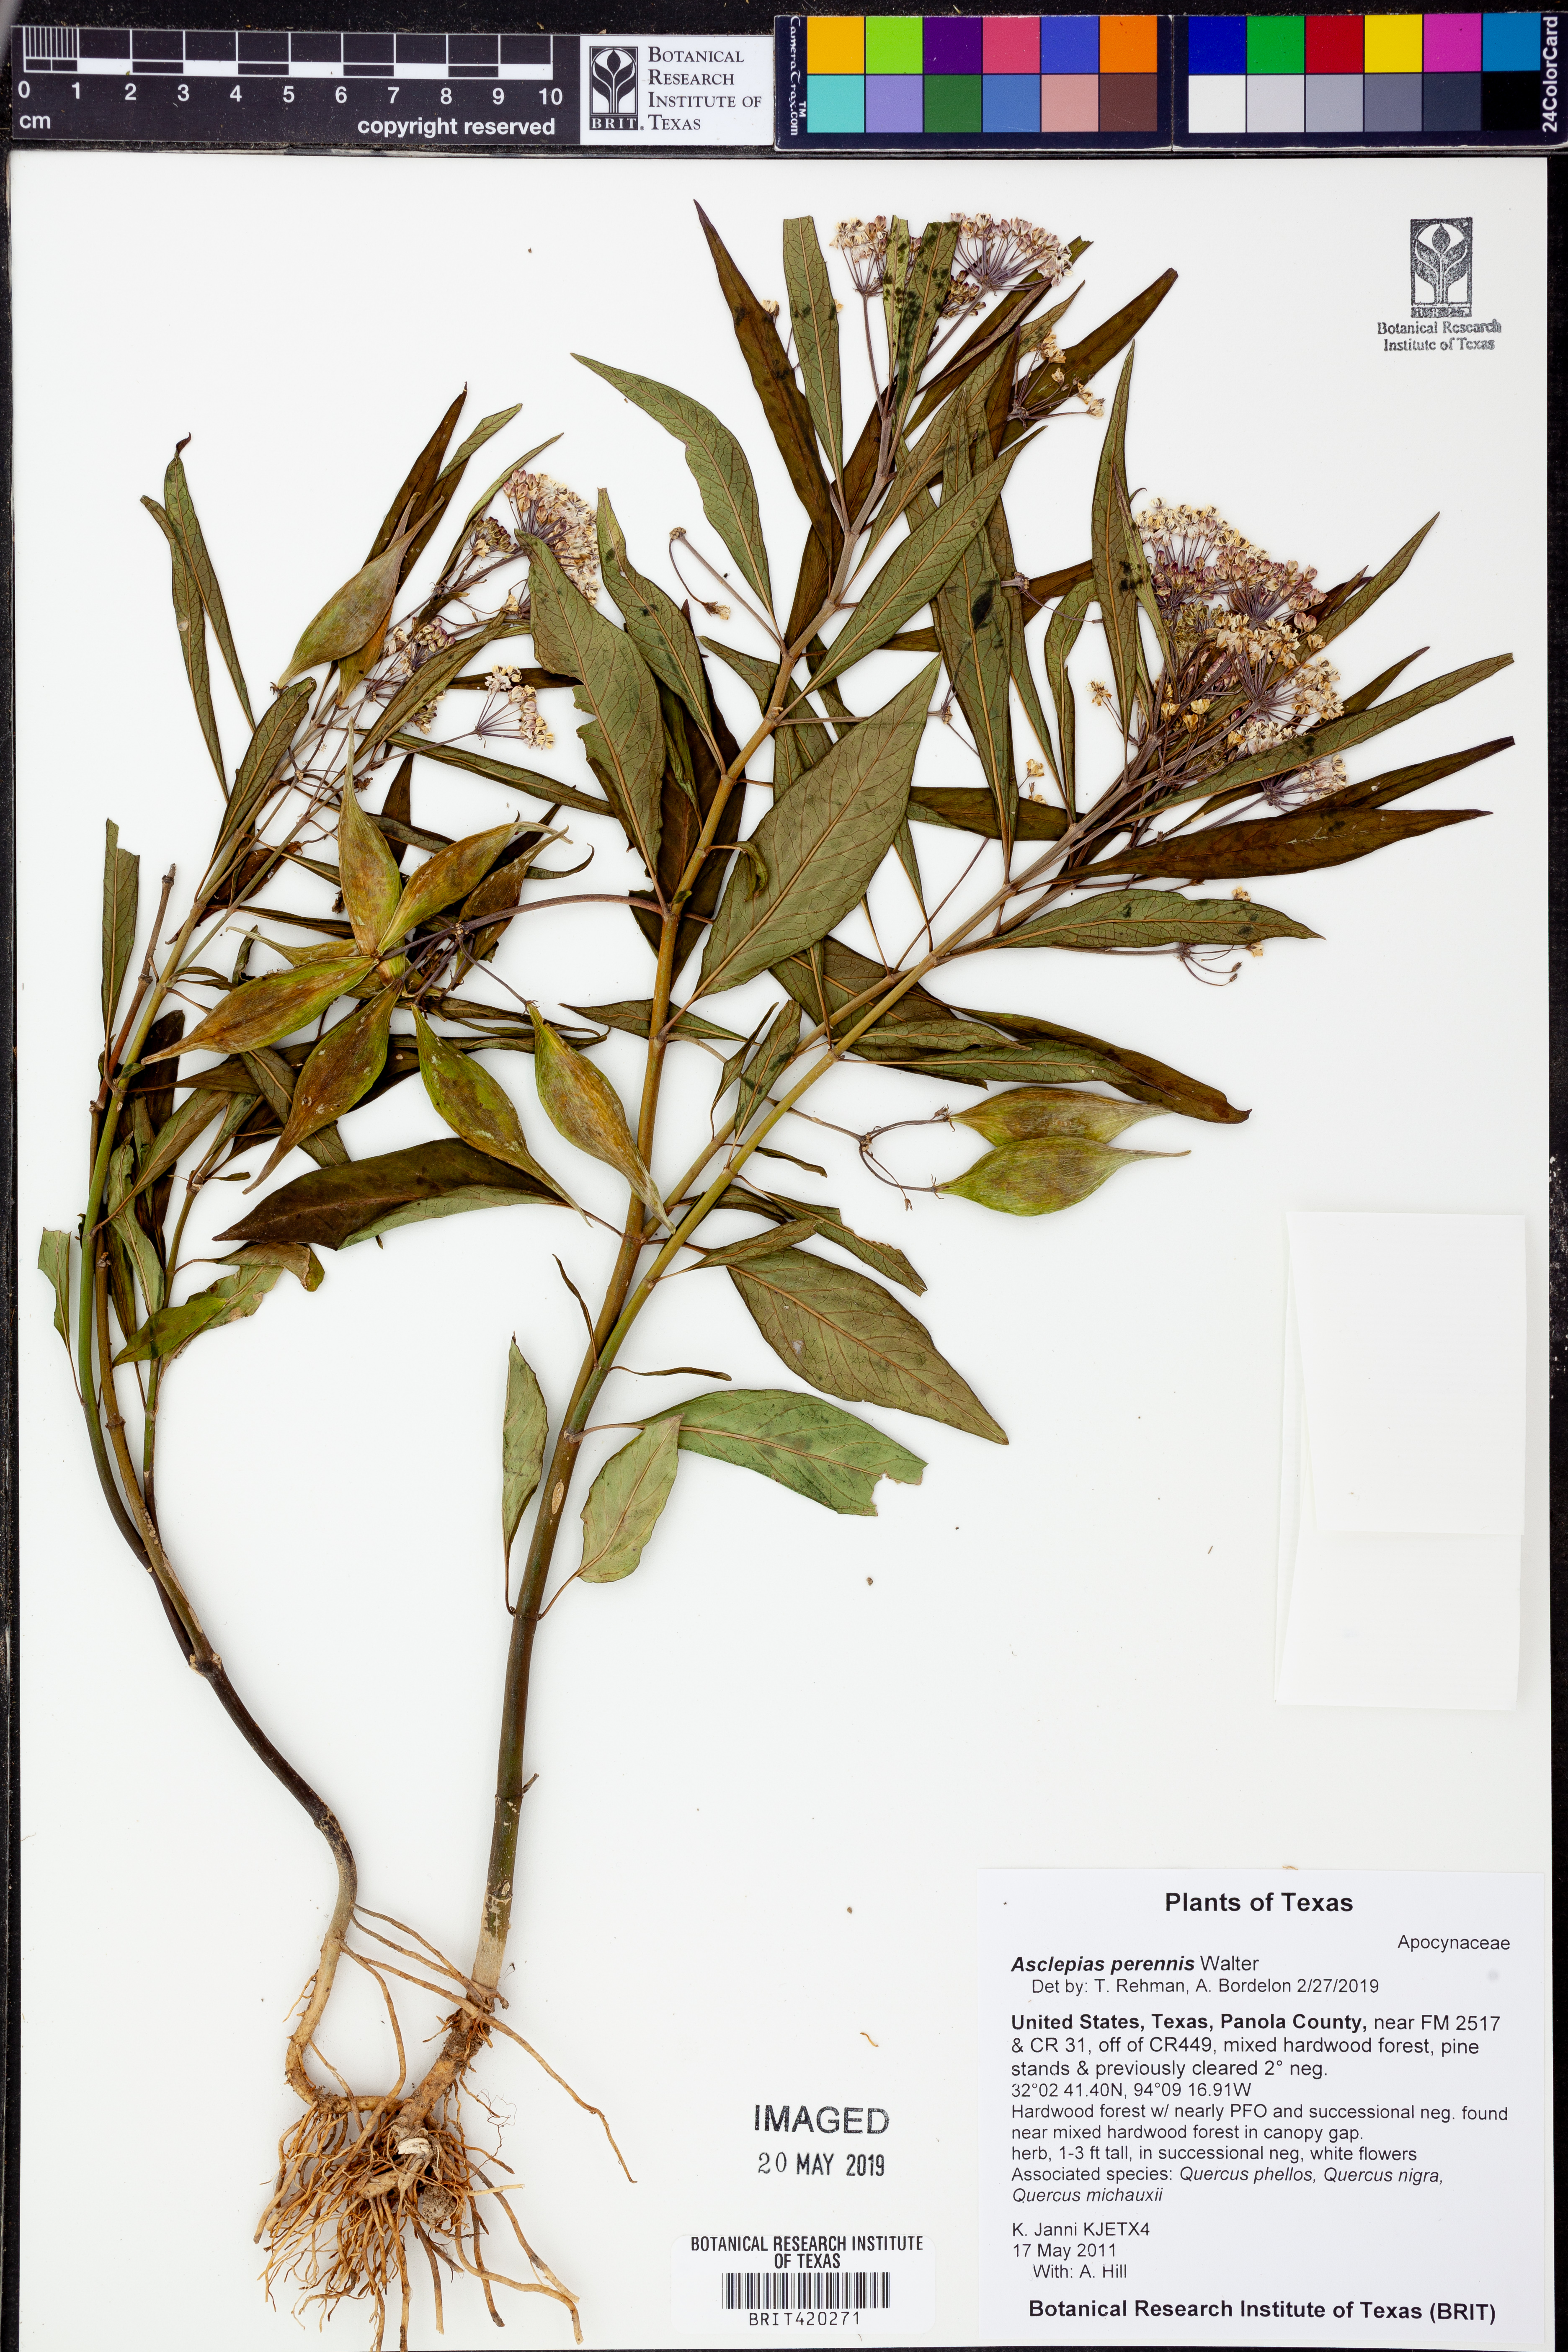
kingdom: Plantae
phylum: Tracheophyta
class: Magnoliopsida
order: Gentianales
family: Apocynaceae
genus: Asclepias
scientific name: Asclepias perennis
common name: Smooth-seed milkweed
